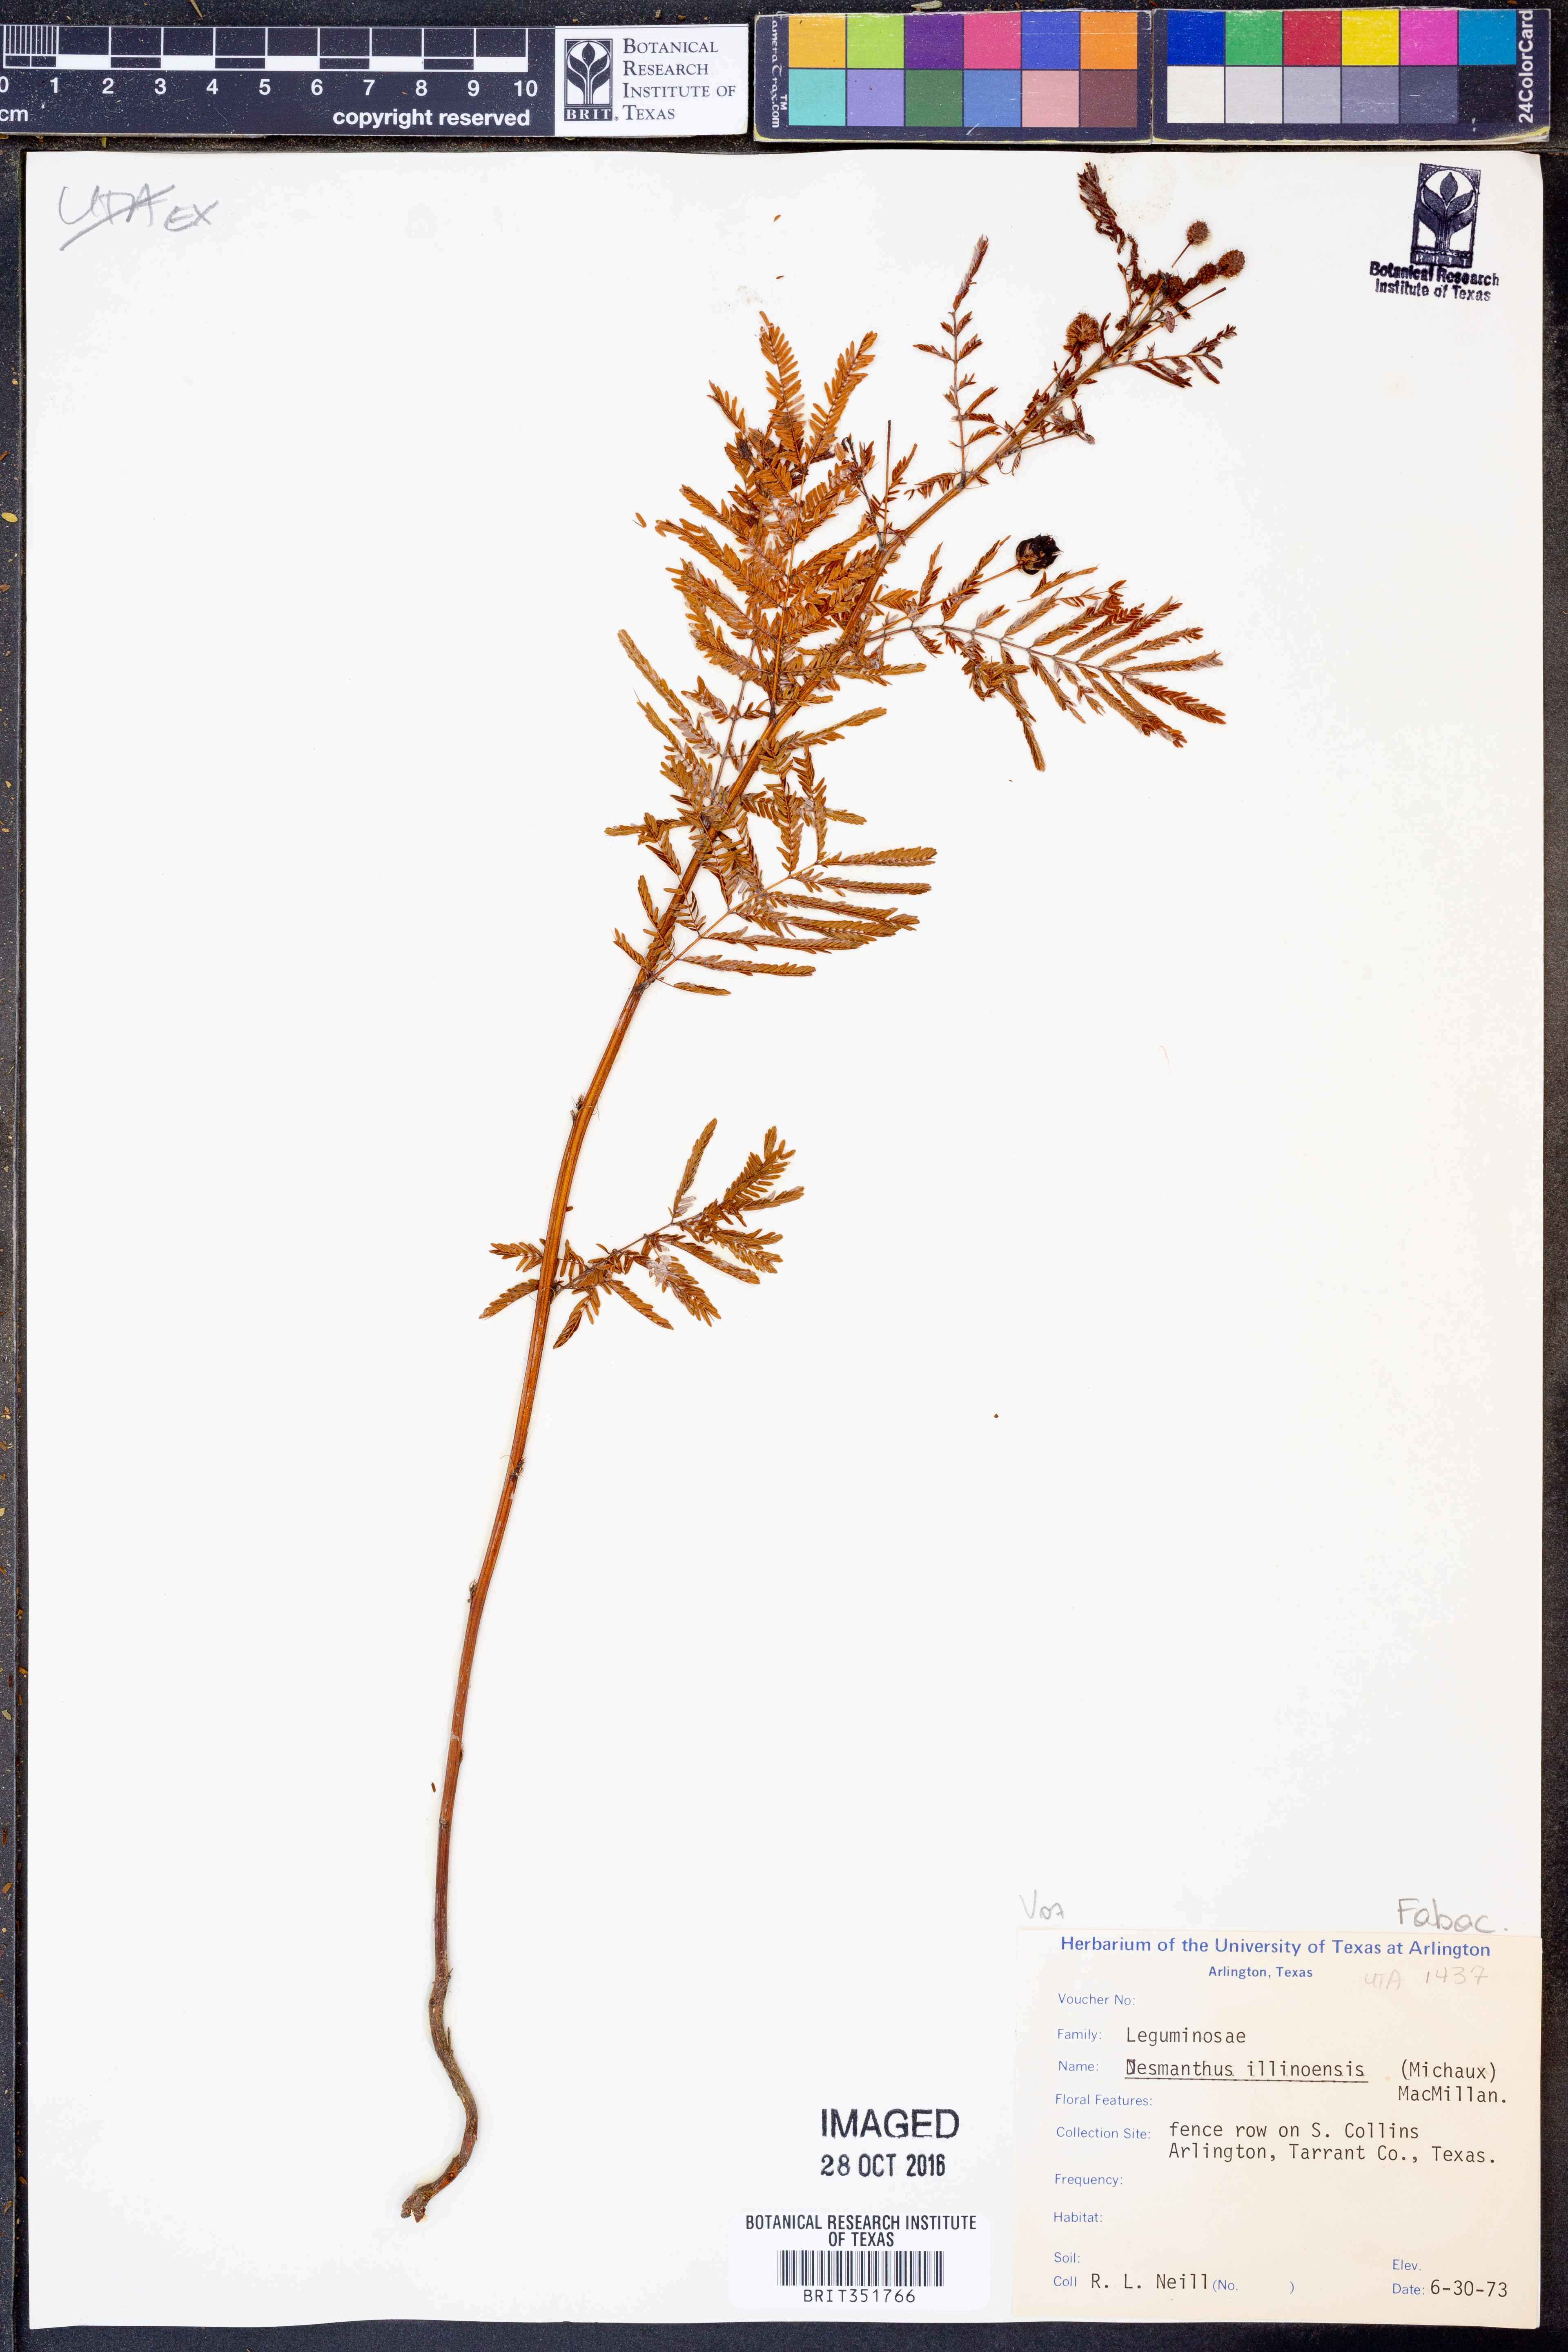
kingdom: Plantae
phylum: Tracheophyta
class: Magnoliopsida
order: Fabales
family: Fabaceae
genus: Desmanthus
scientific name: Desmanthus illinoensis
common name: Illinois bundle-flower
